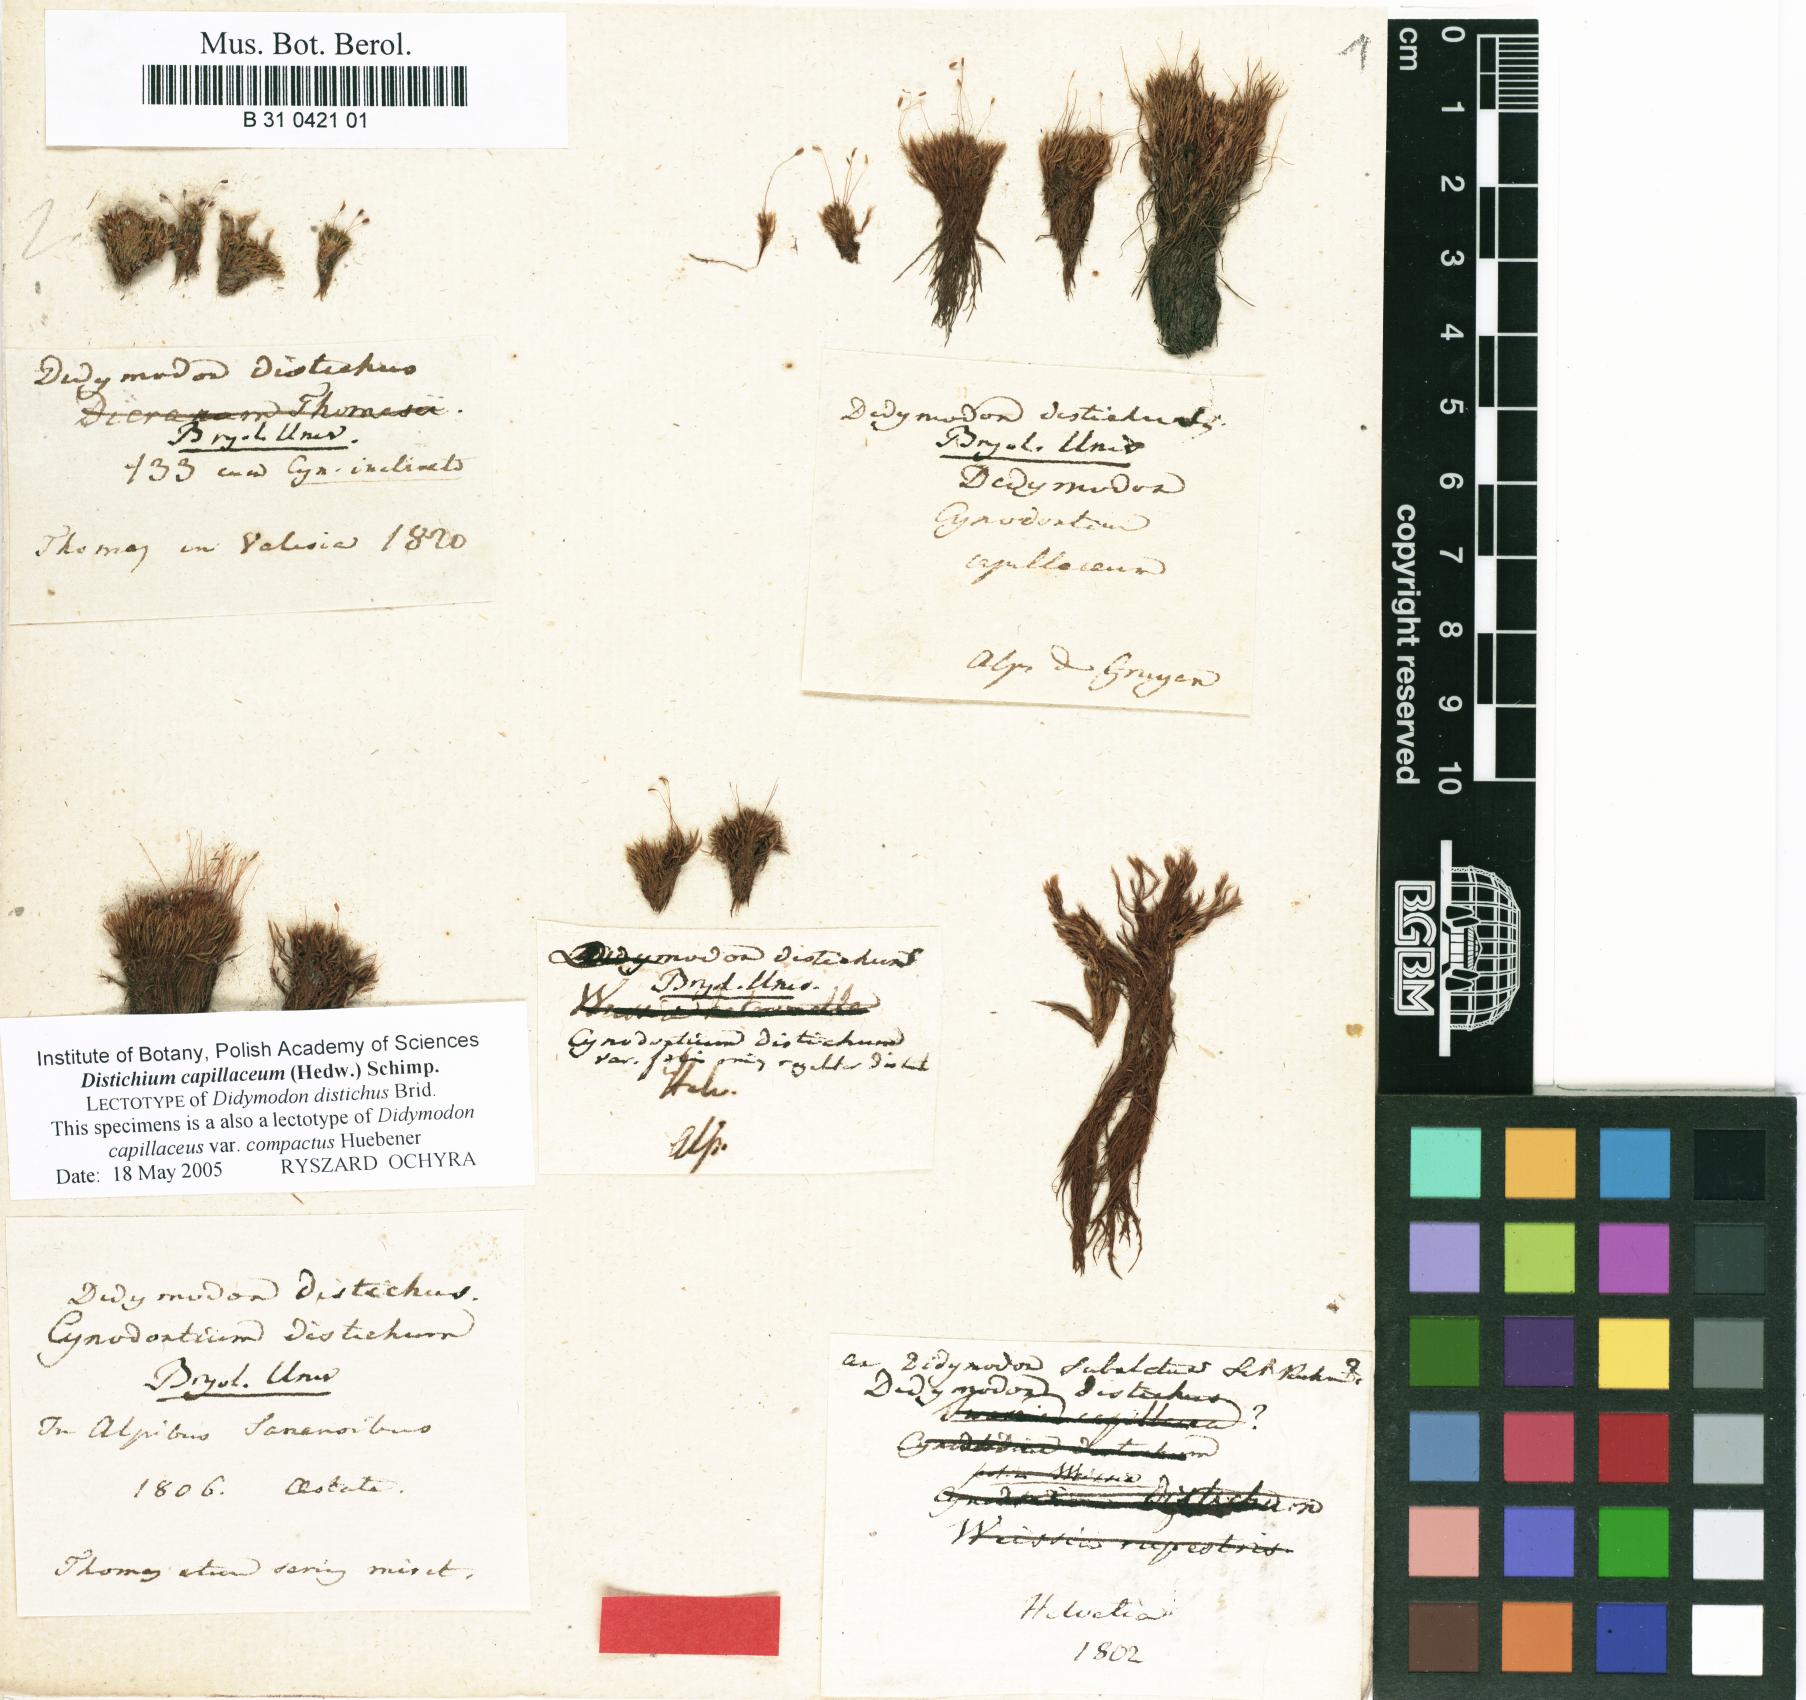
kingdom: Plantae
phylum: Bryophyta
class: Bryopsida
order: Scouleriales
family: Distichiaceae
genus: Distichium
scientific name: Distichium capillaceum
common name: Erect-fruited iris moss
